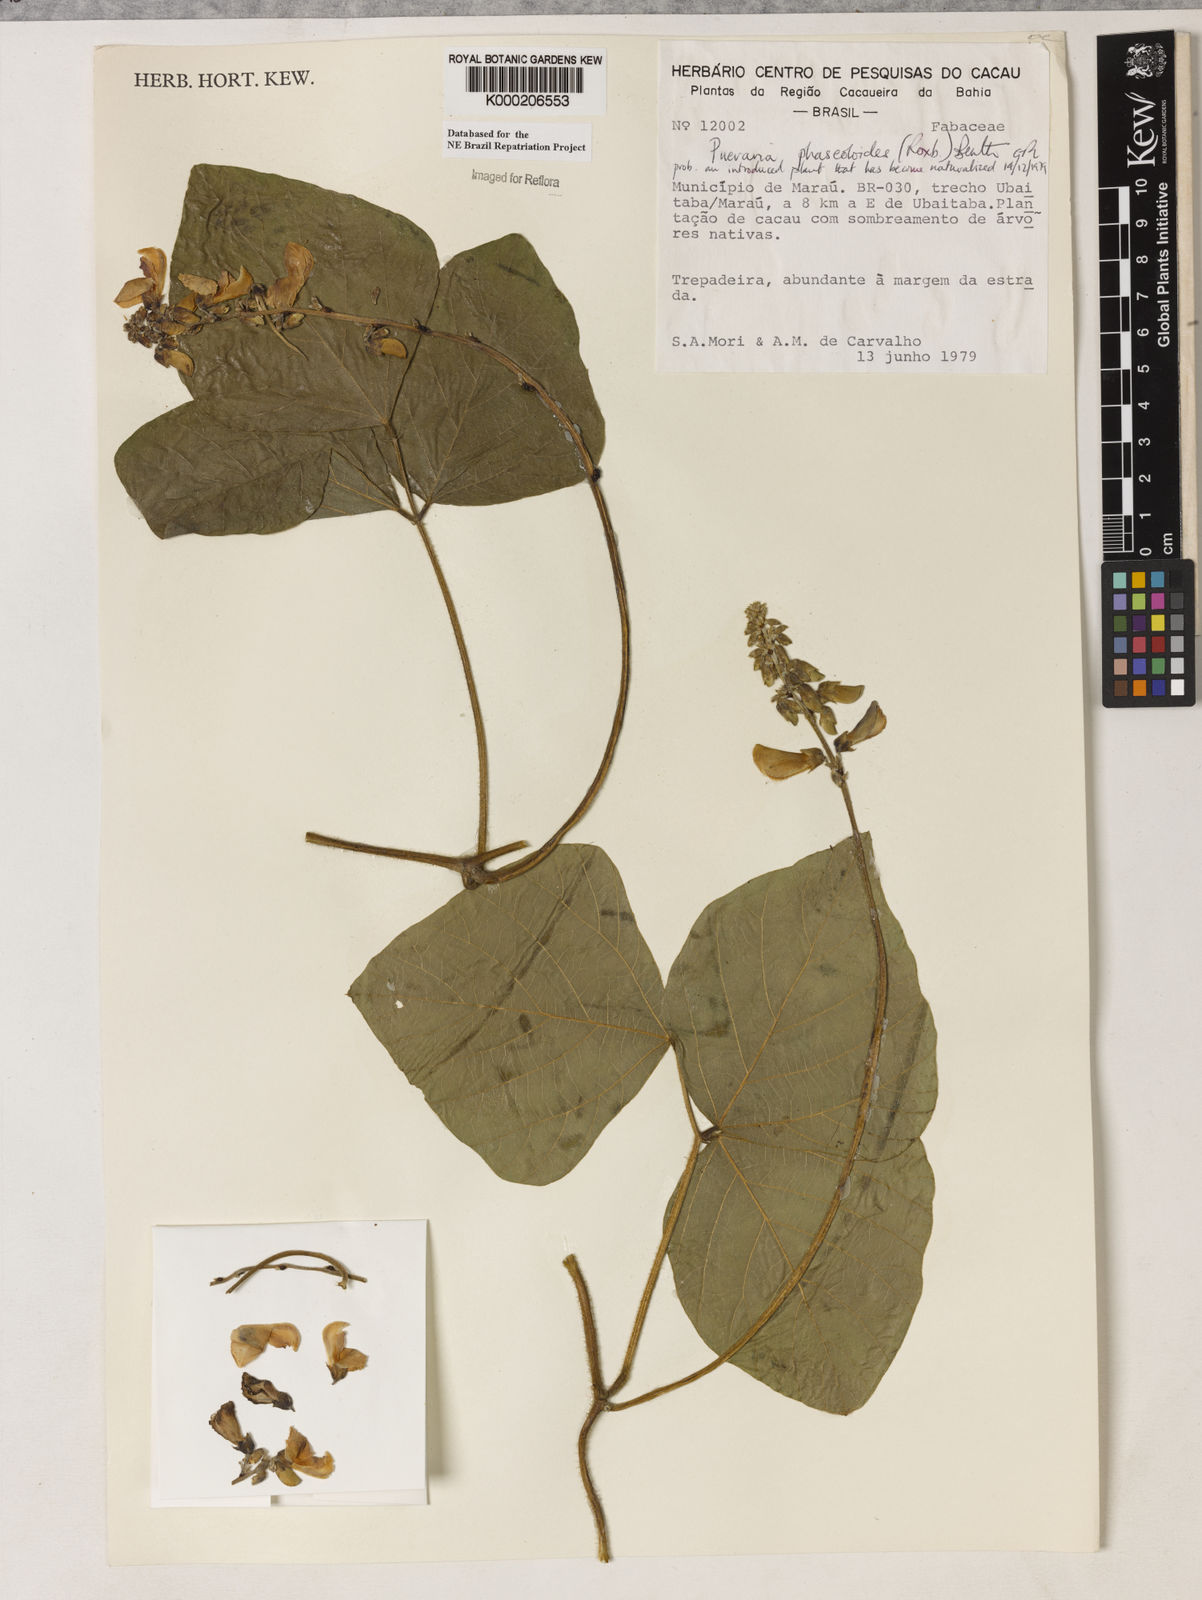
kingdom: Plantae
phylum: Tracheophyta
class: Magnoliopsida
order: Fabales
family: Fabaceae
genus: Neustanthus
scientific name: Neustanthus phaseoloides
